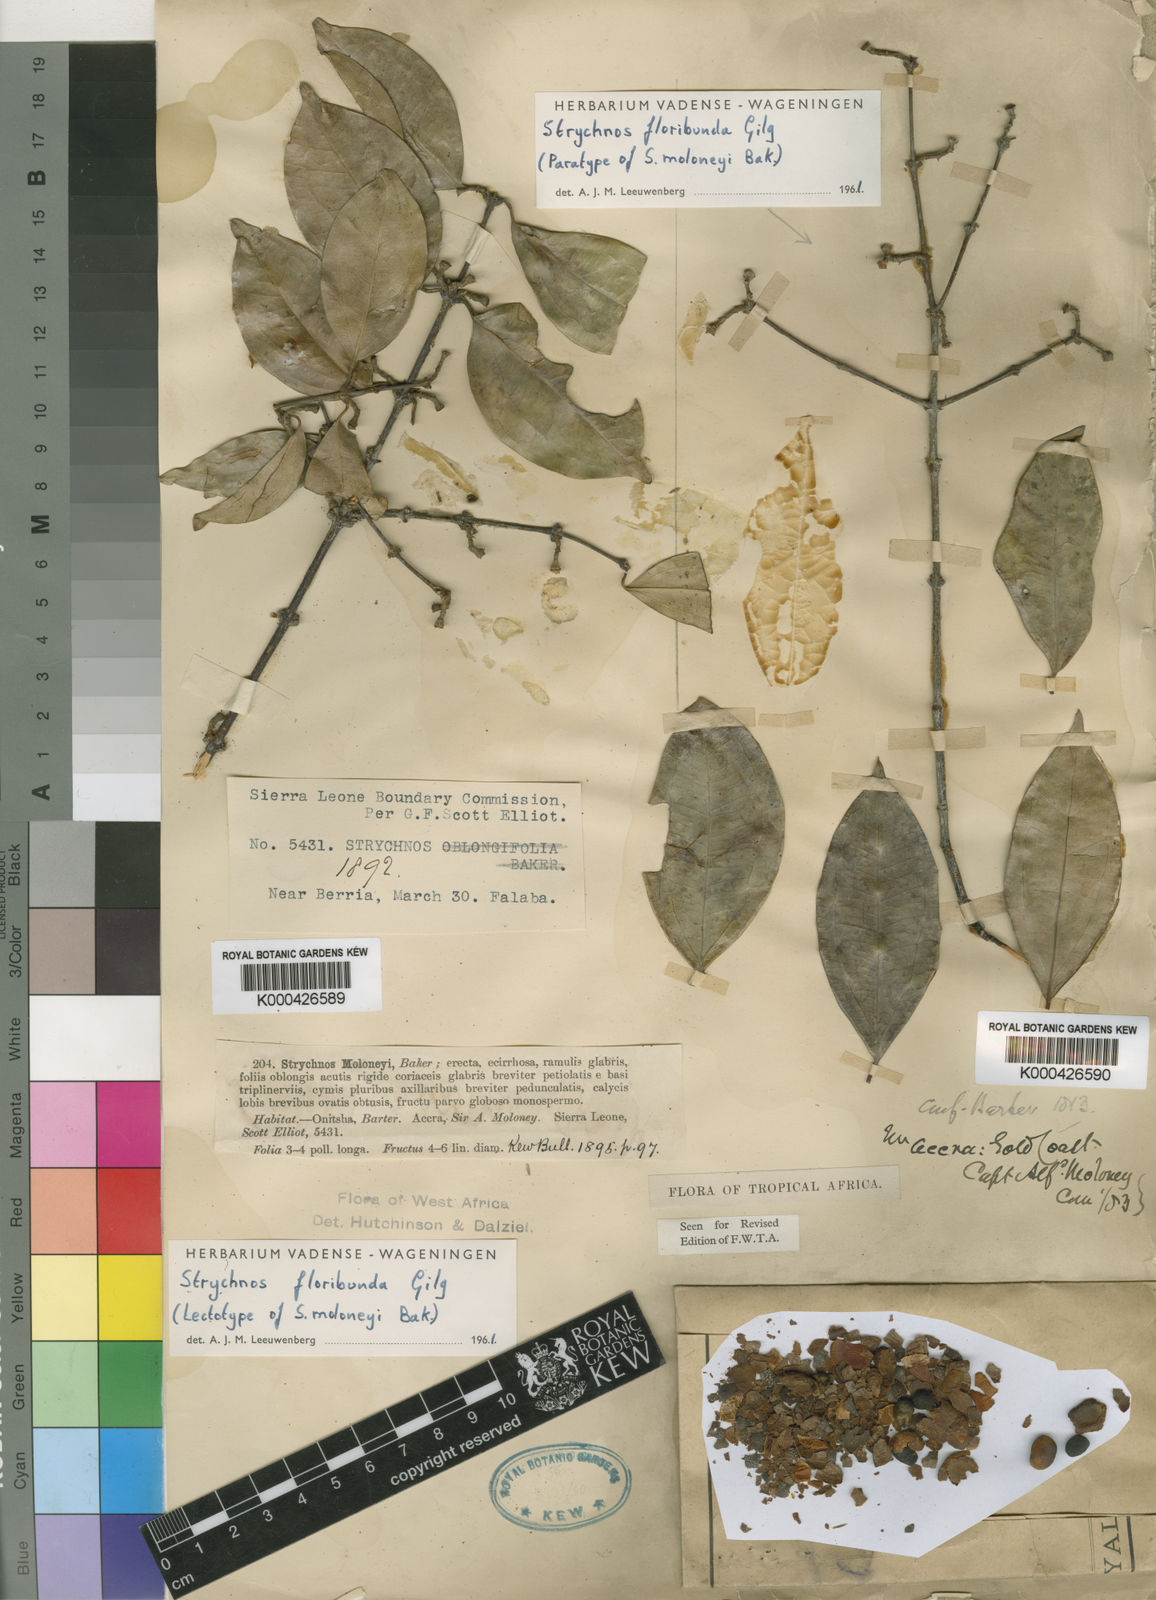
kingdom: Plantae
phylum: Tracheophyta
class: Magnoliopsida
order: Gentianales
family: Loganiaceae
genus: Strychnos
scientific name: Strychnos floribunda
